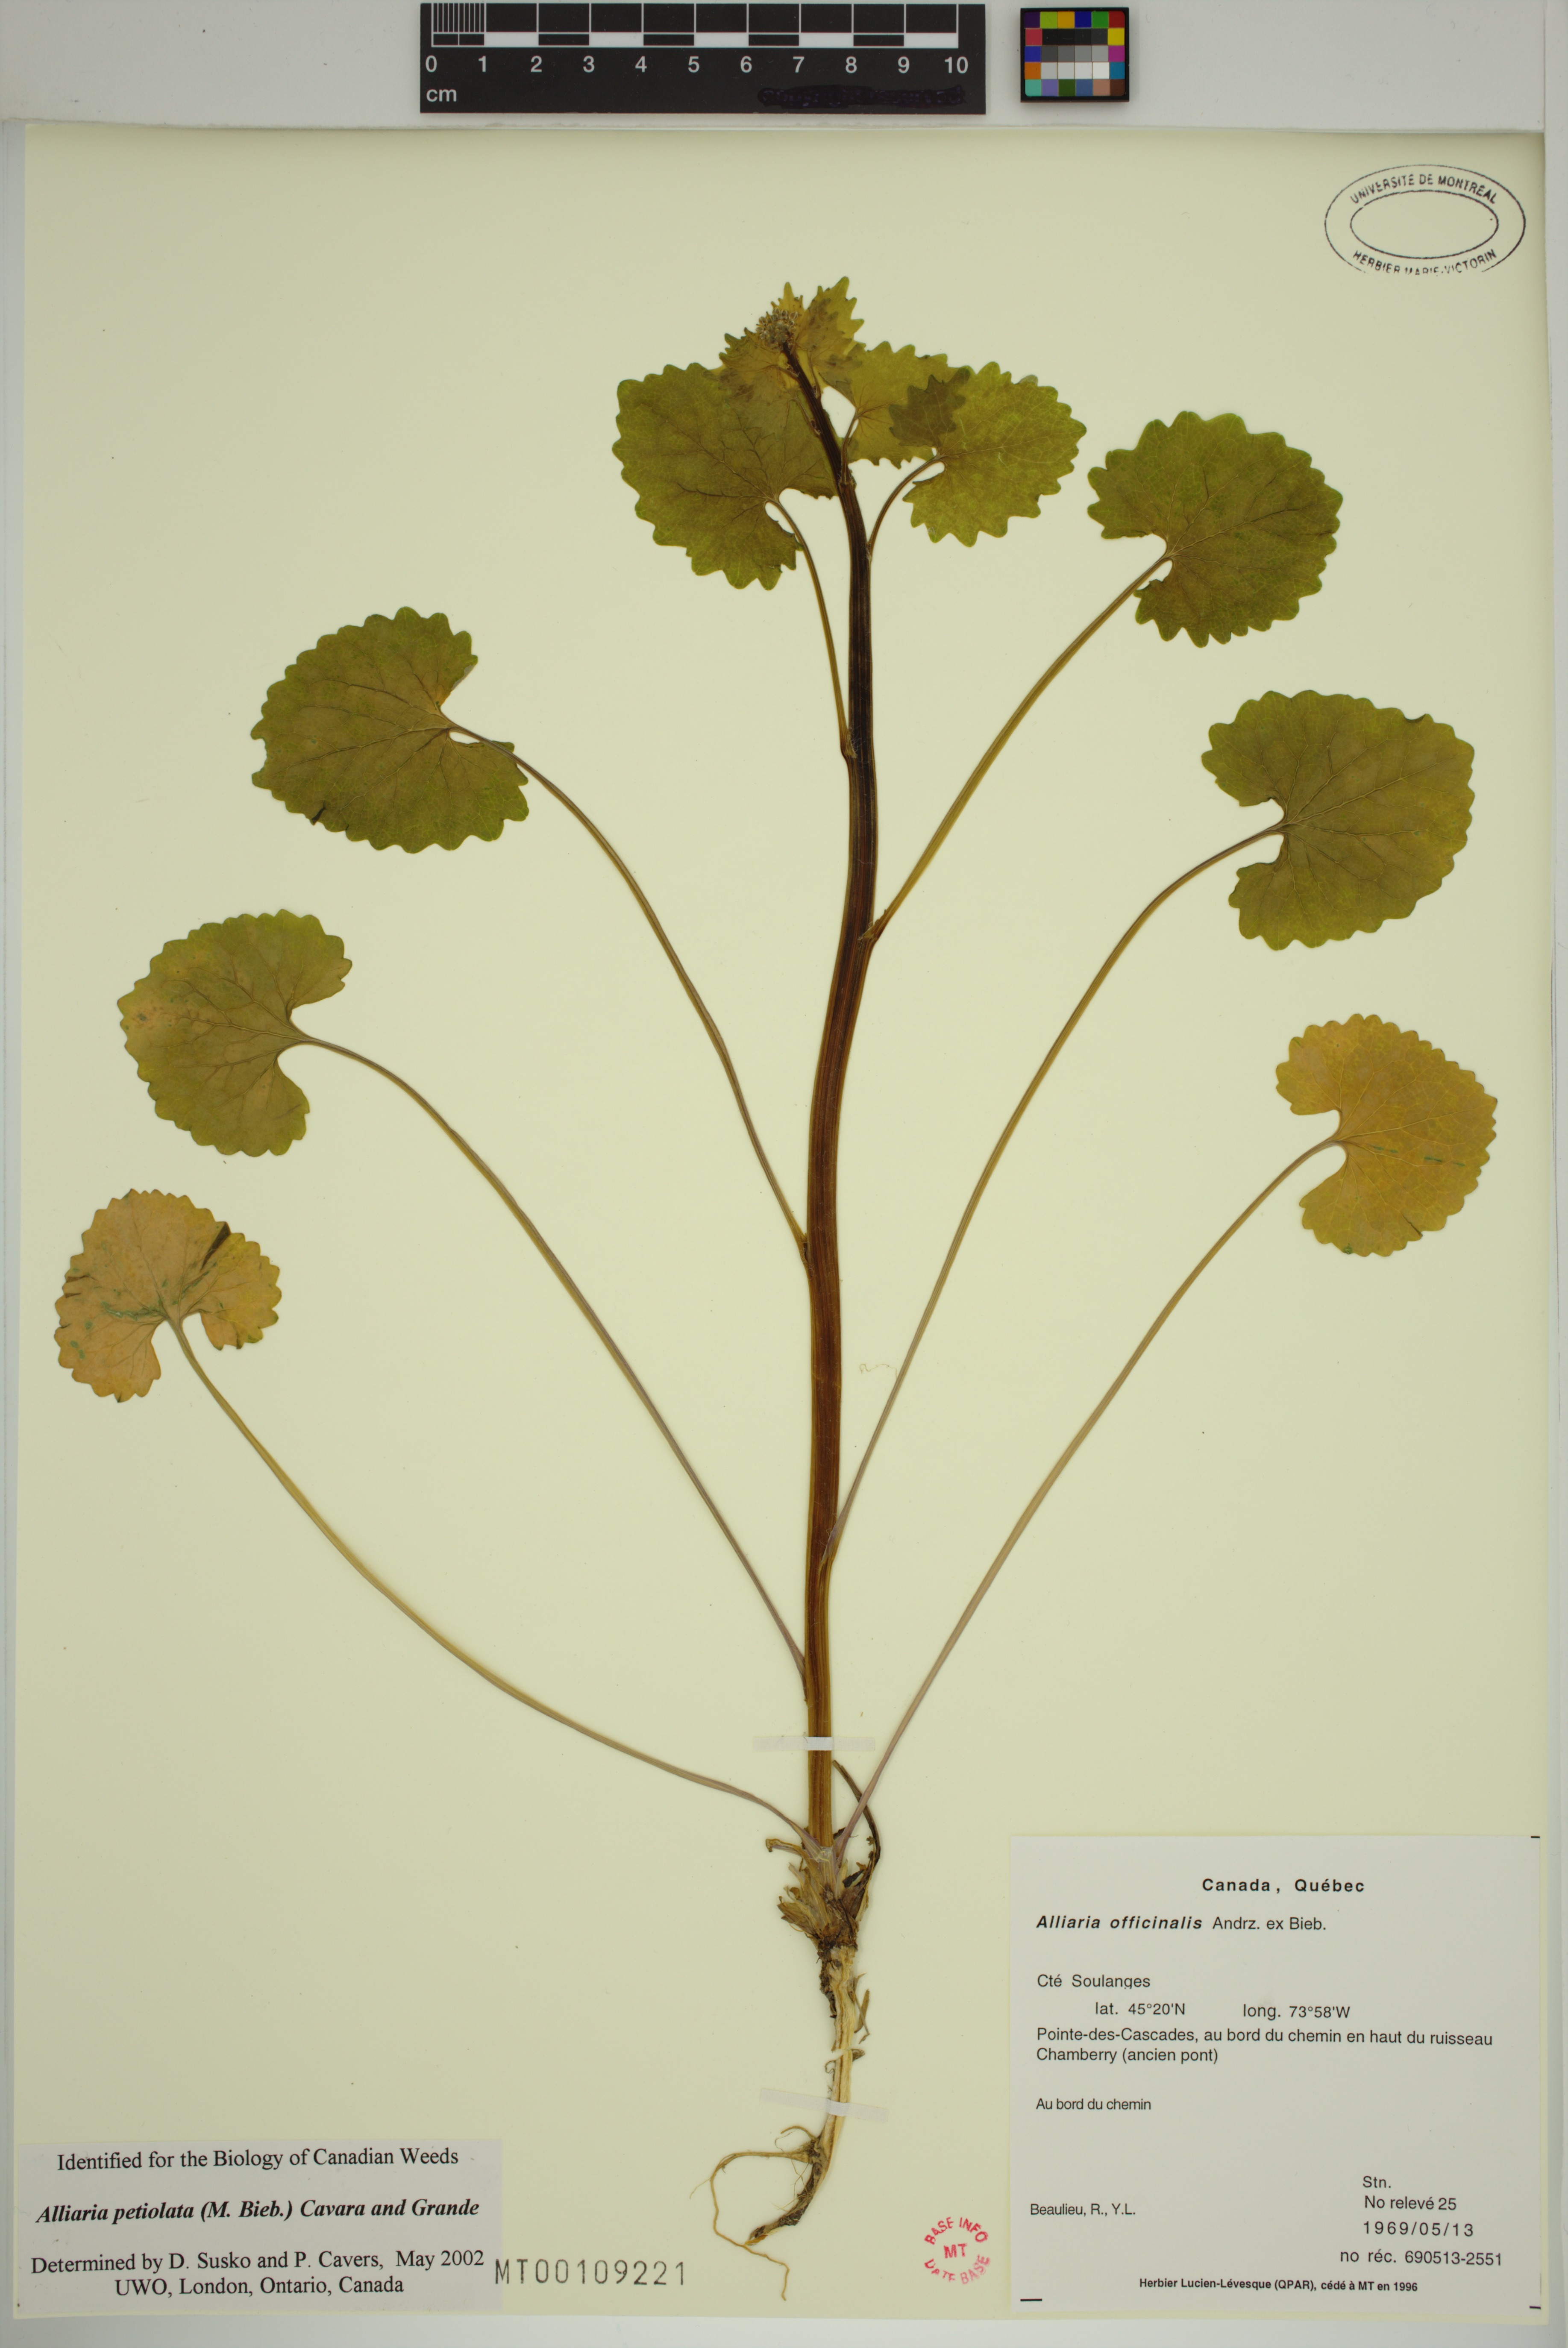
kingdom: Plantae
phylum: Tracheophyta
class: Magnoliopsida
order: Brassicales
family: Brassicaceae
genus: Alliaria
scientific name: Alliaria petiolata
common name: Garlic mustard
